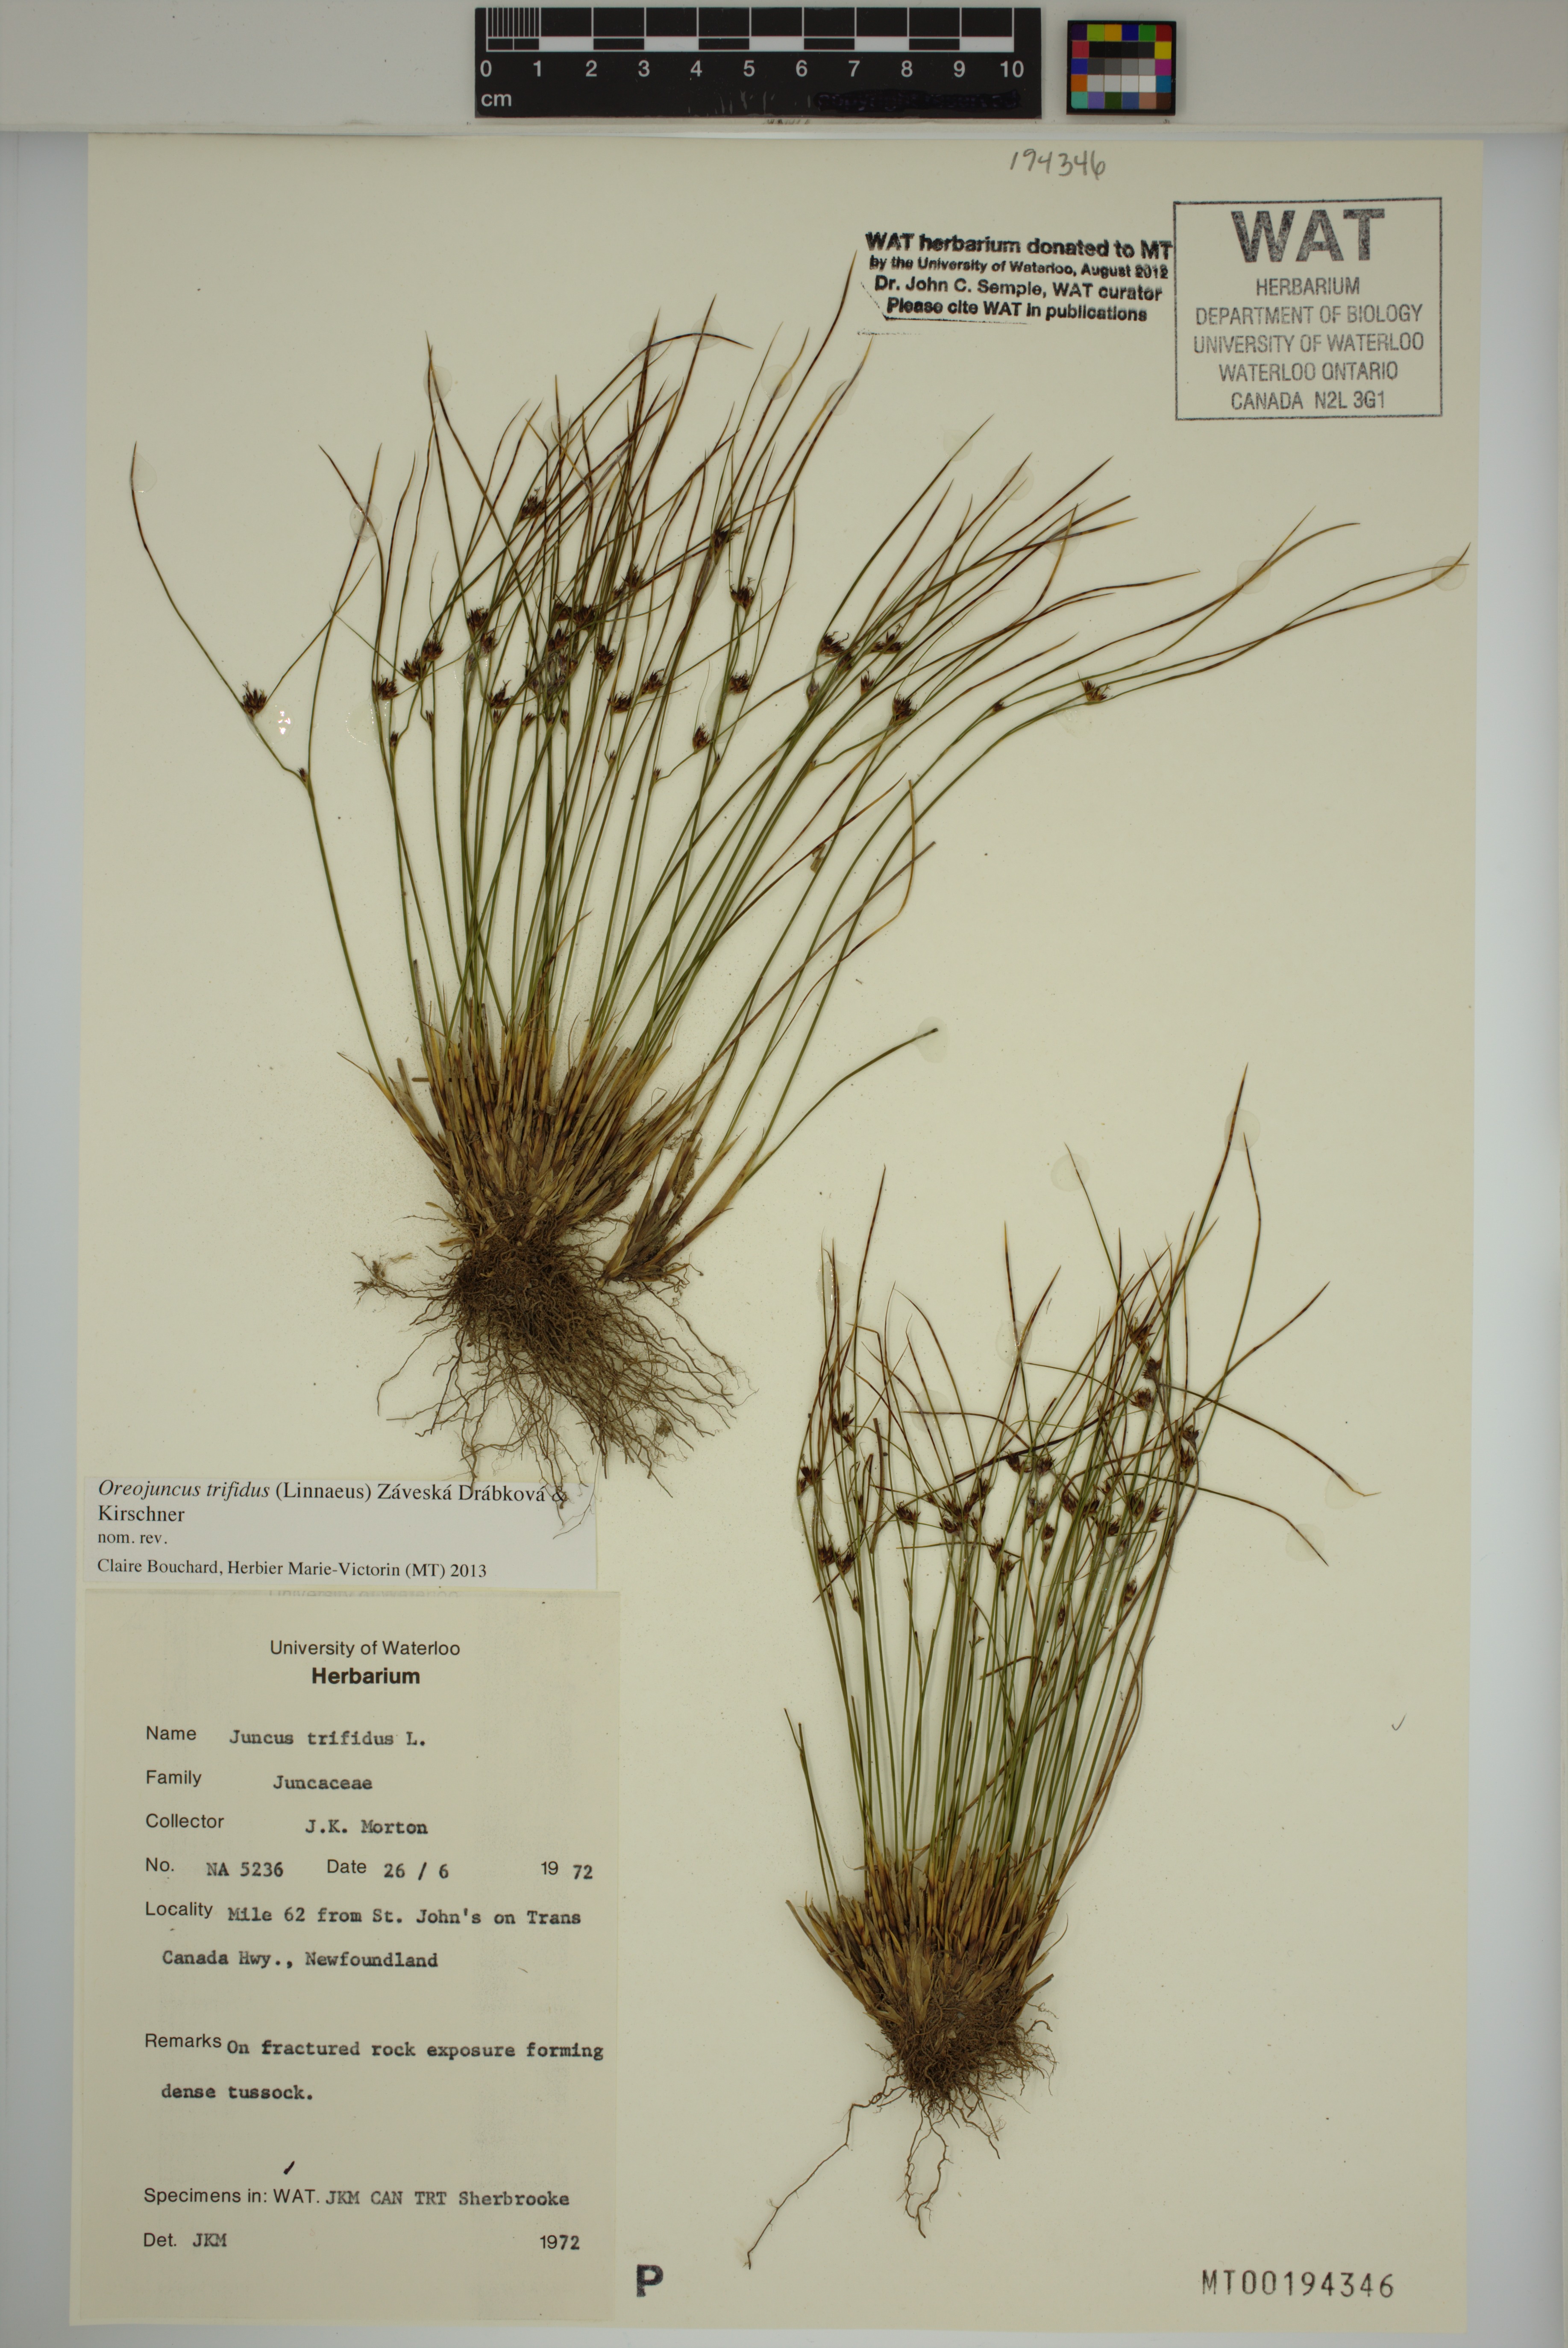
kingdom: Plantae
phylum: Tracheophyta
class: Liliopsida
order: Poales
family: Juncaceae
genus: Oreojuncus
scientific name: Oreojuncus trifidus
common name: Highland rush
